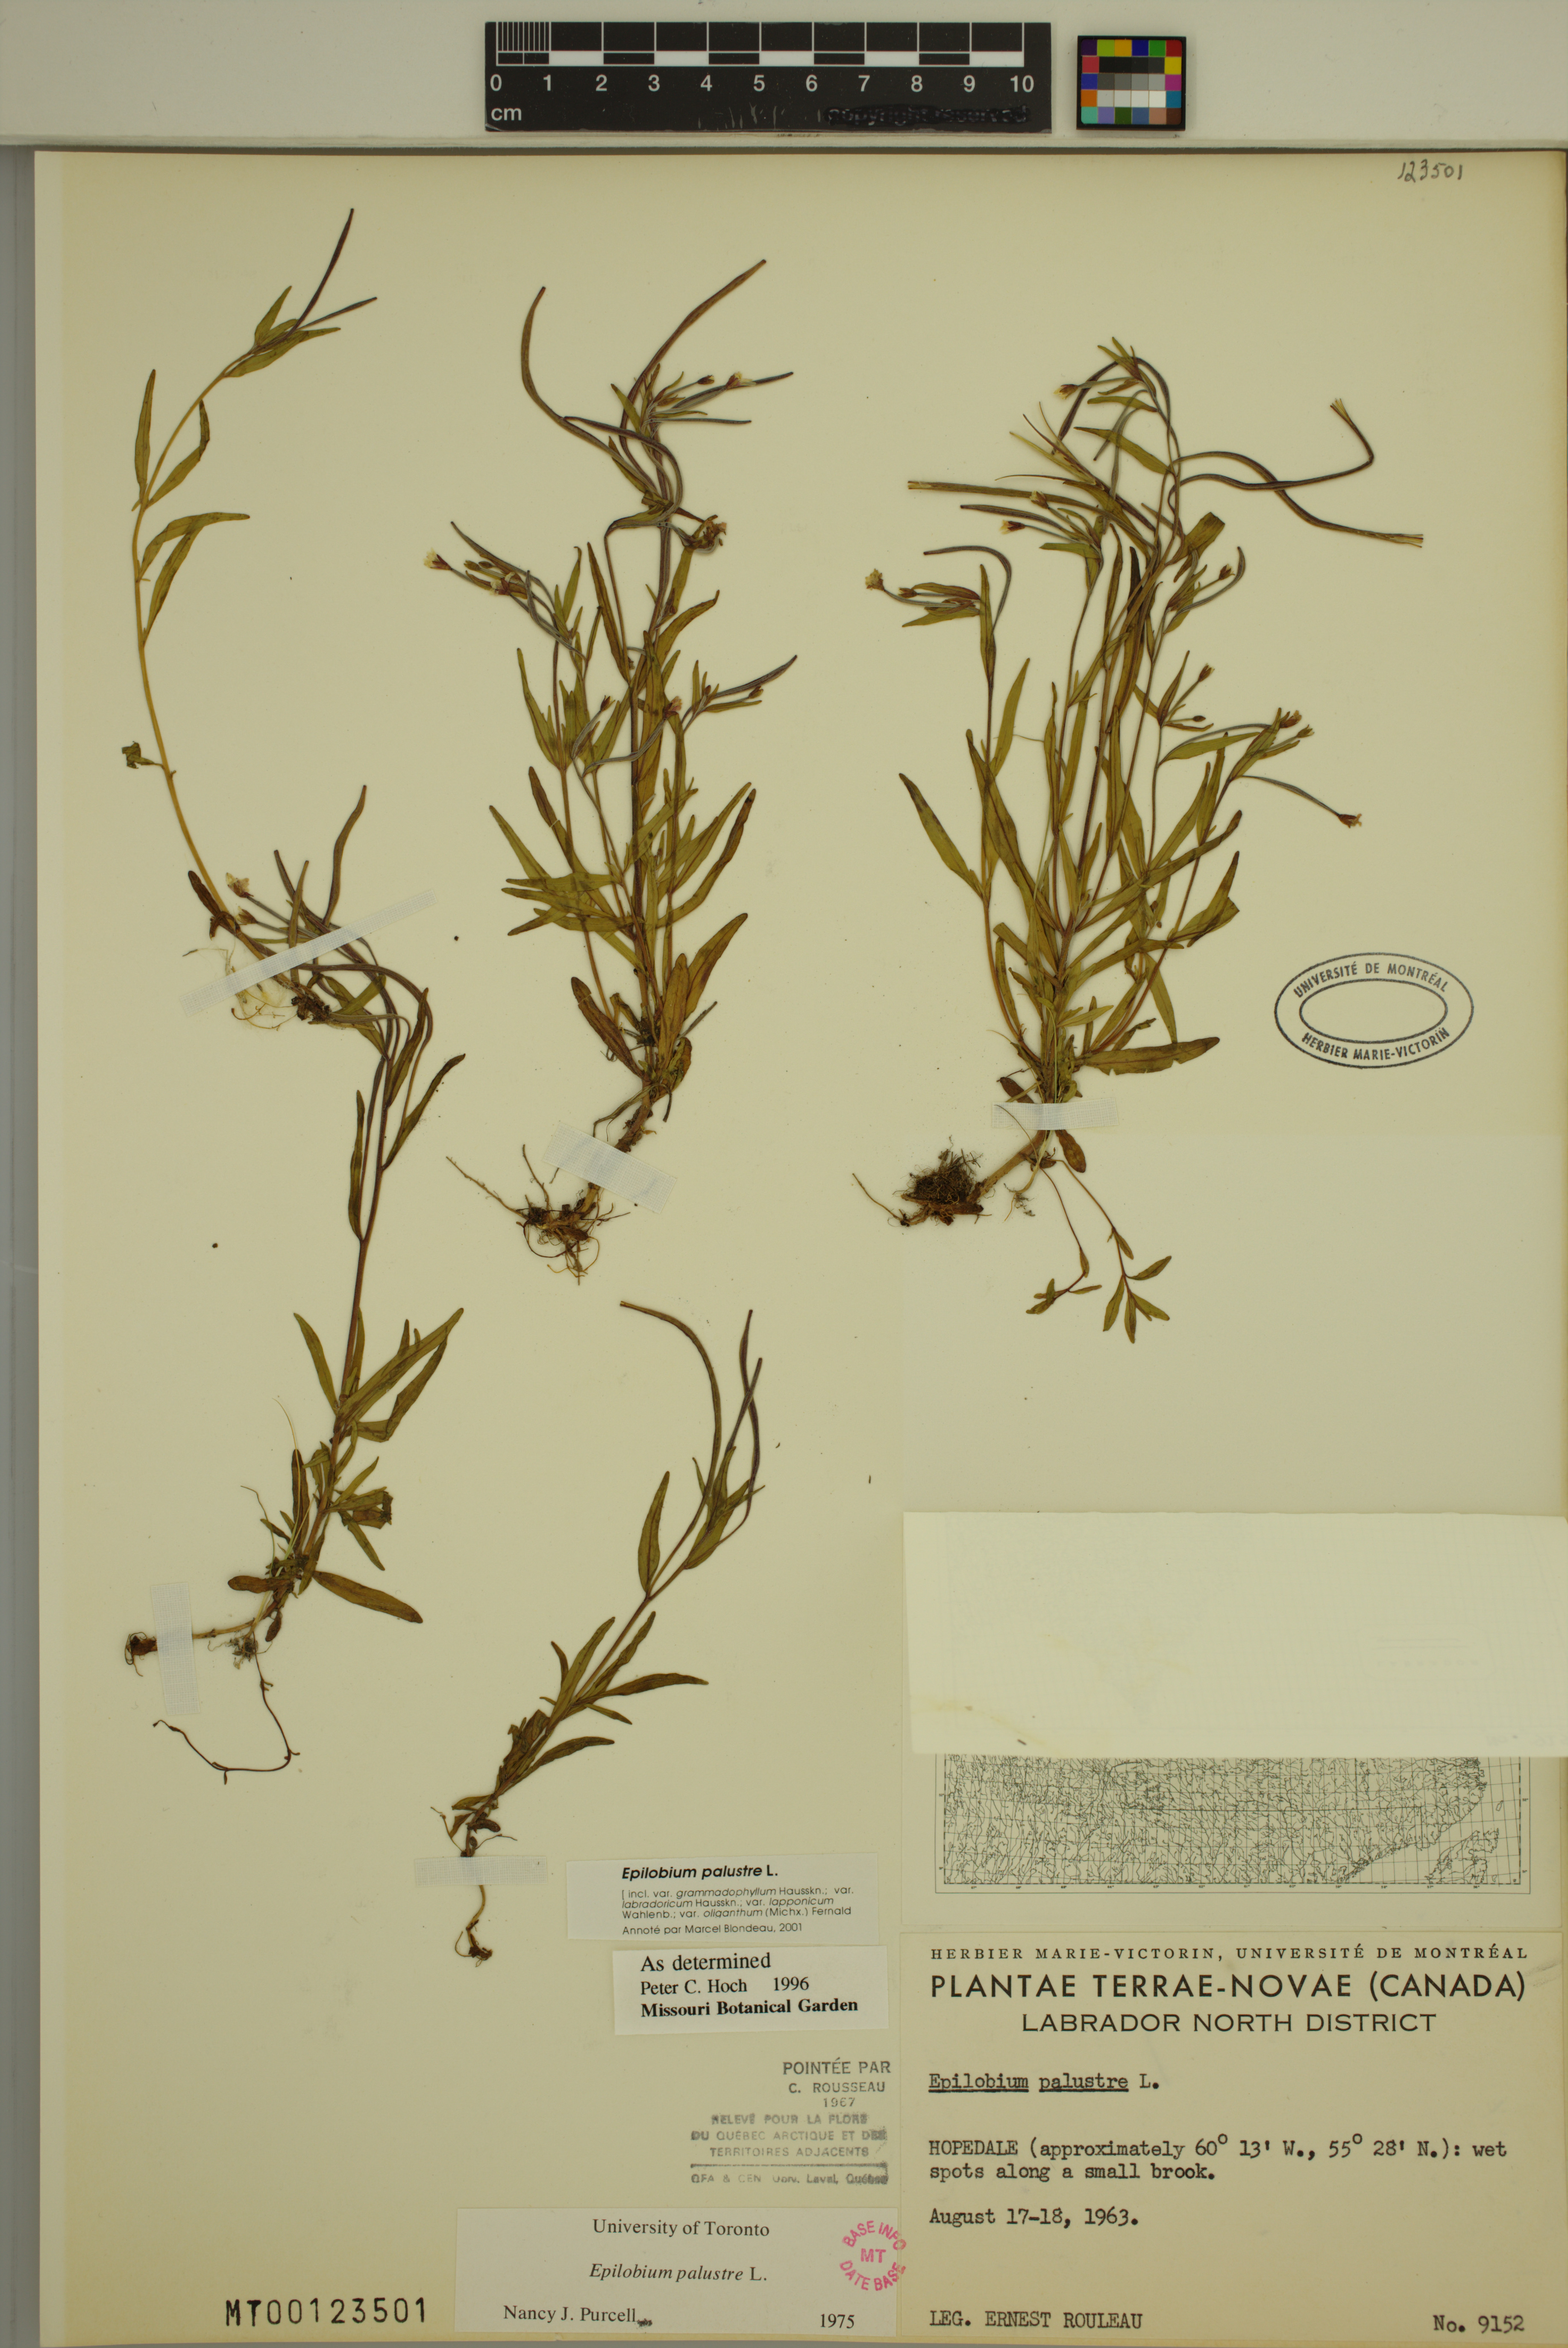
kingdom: Plantae
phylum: Tracheophyta
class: Magnoliopsida
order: Myrtales
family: Onagraceae
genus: Epilobium
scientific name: Epilobium palustre
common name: Marsh willowherb
